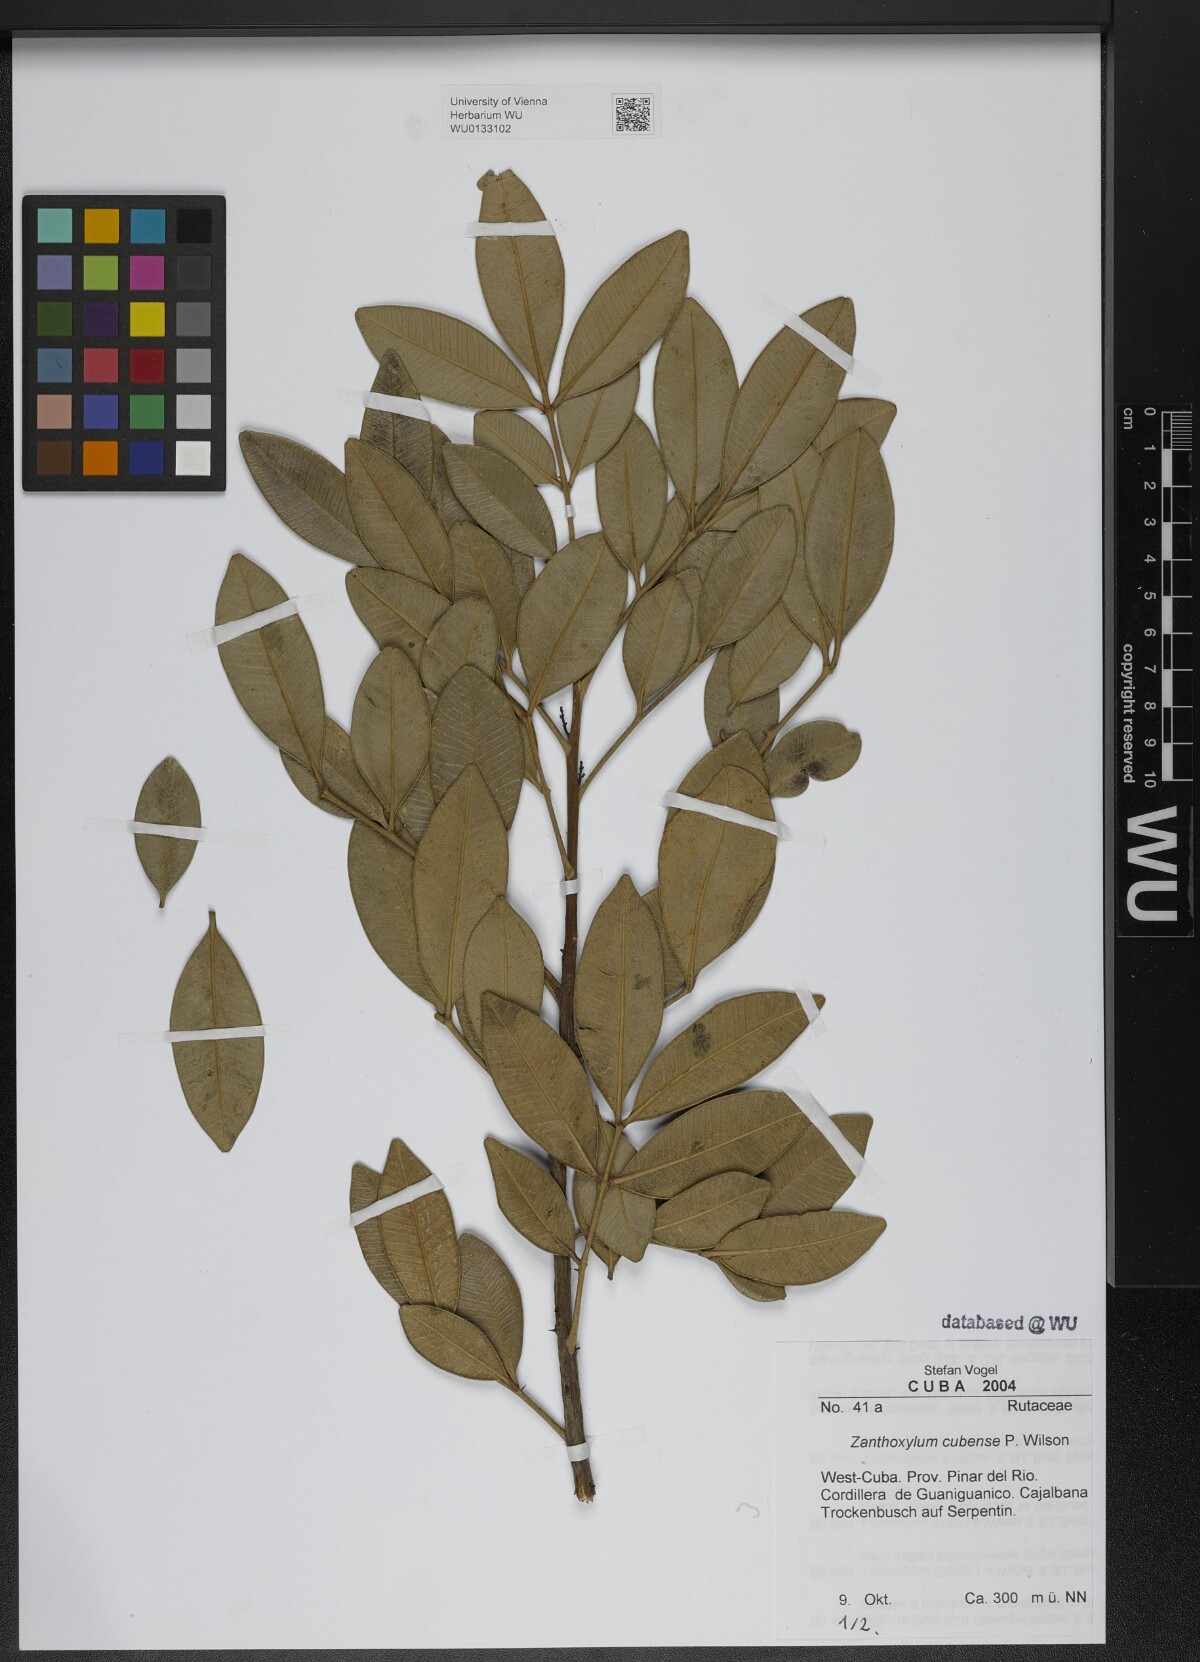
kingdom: Plantae
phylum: Tracheophyta
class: Magnoliopsida
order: Sapindales
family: Rutaceae
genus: Zanthoxylum
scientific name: Zanthoxylum rhodoxylon
